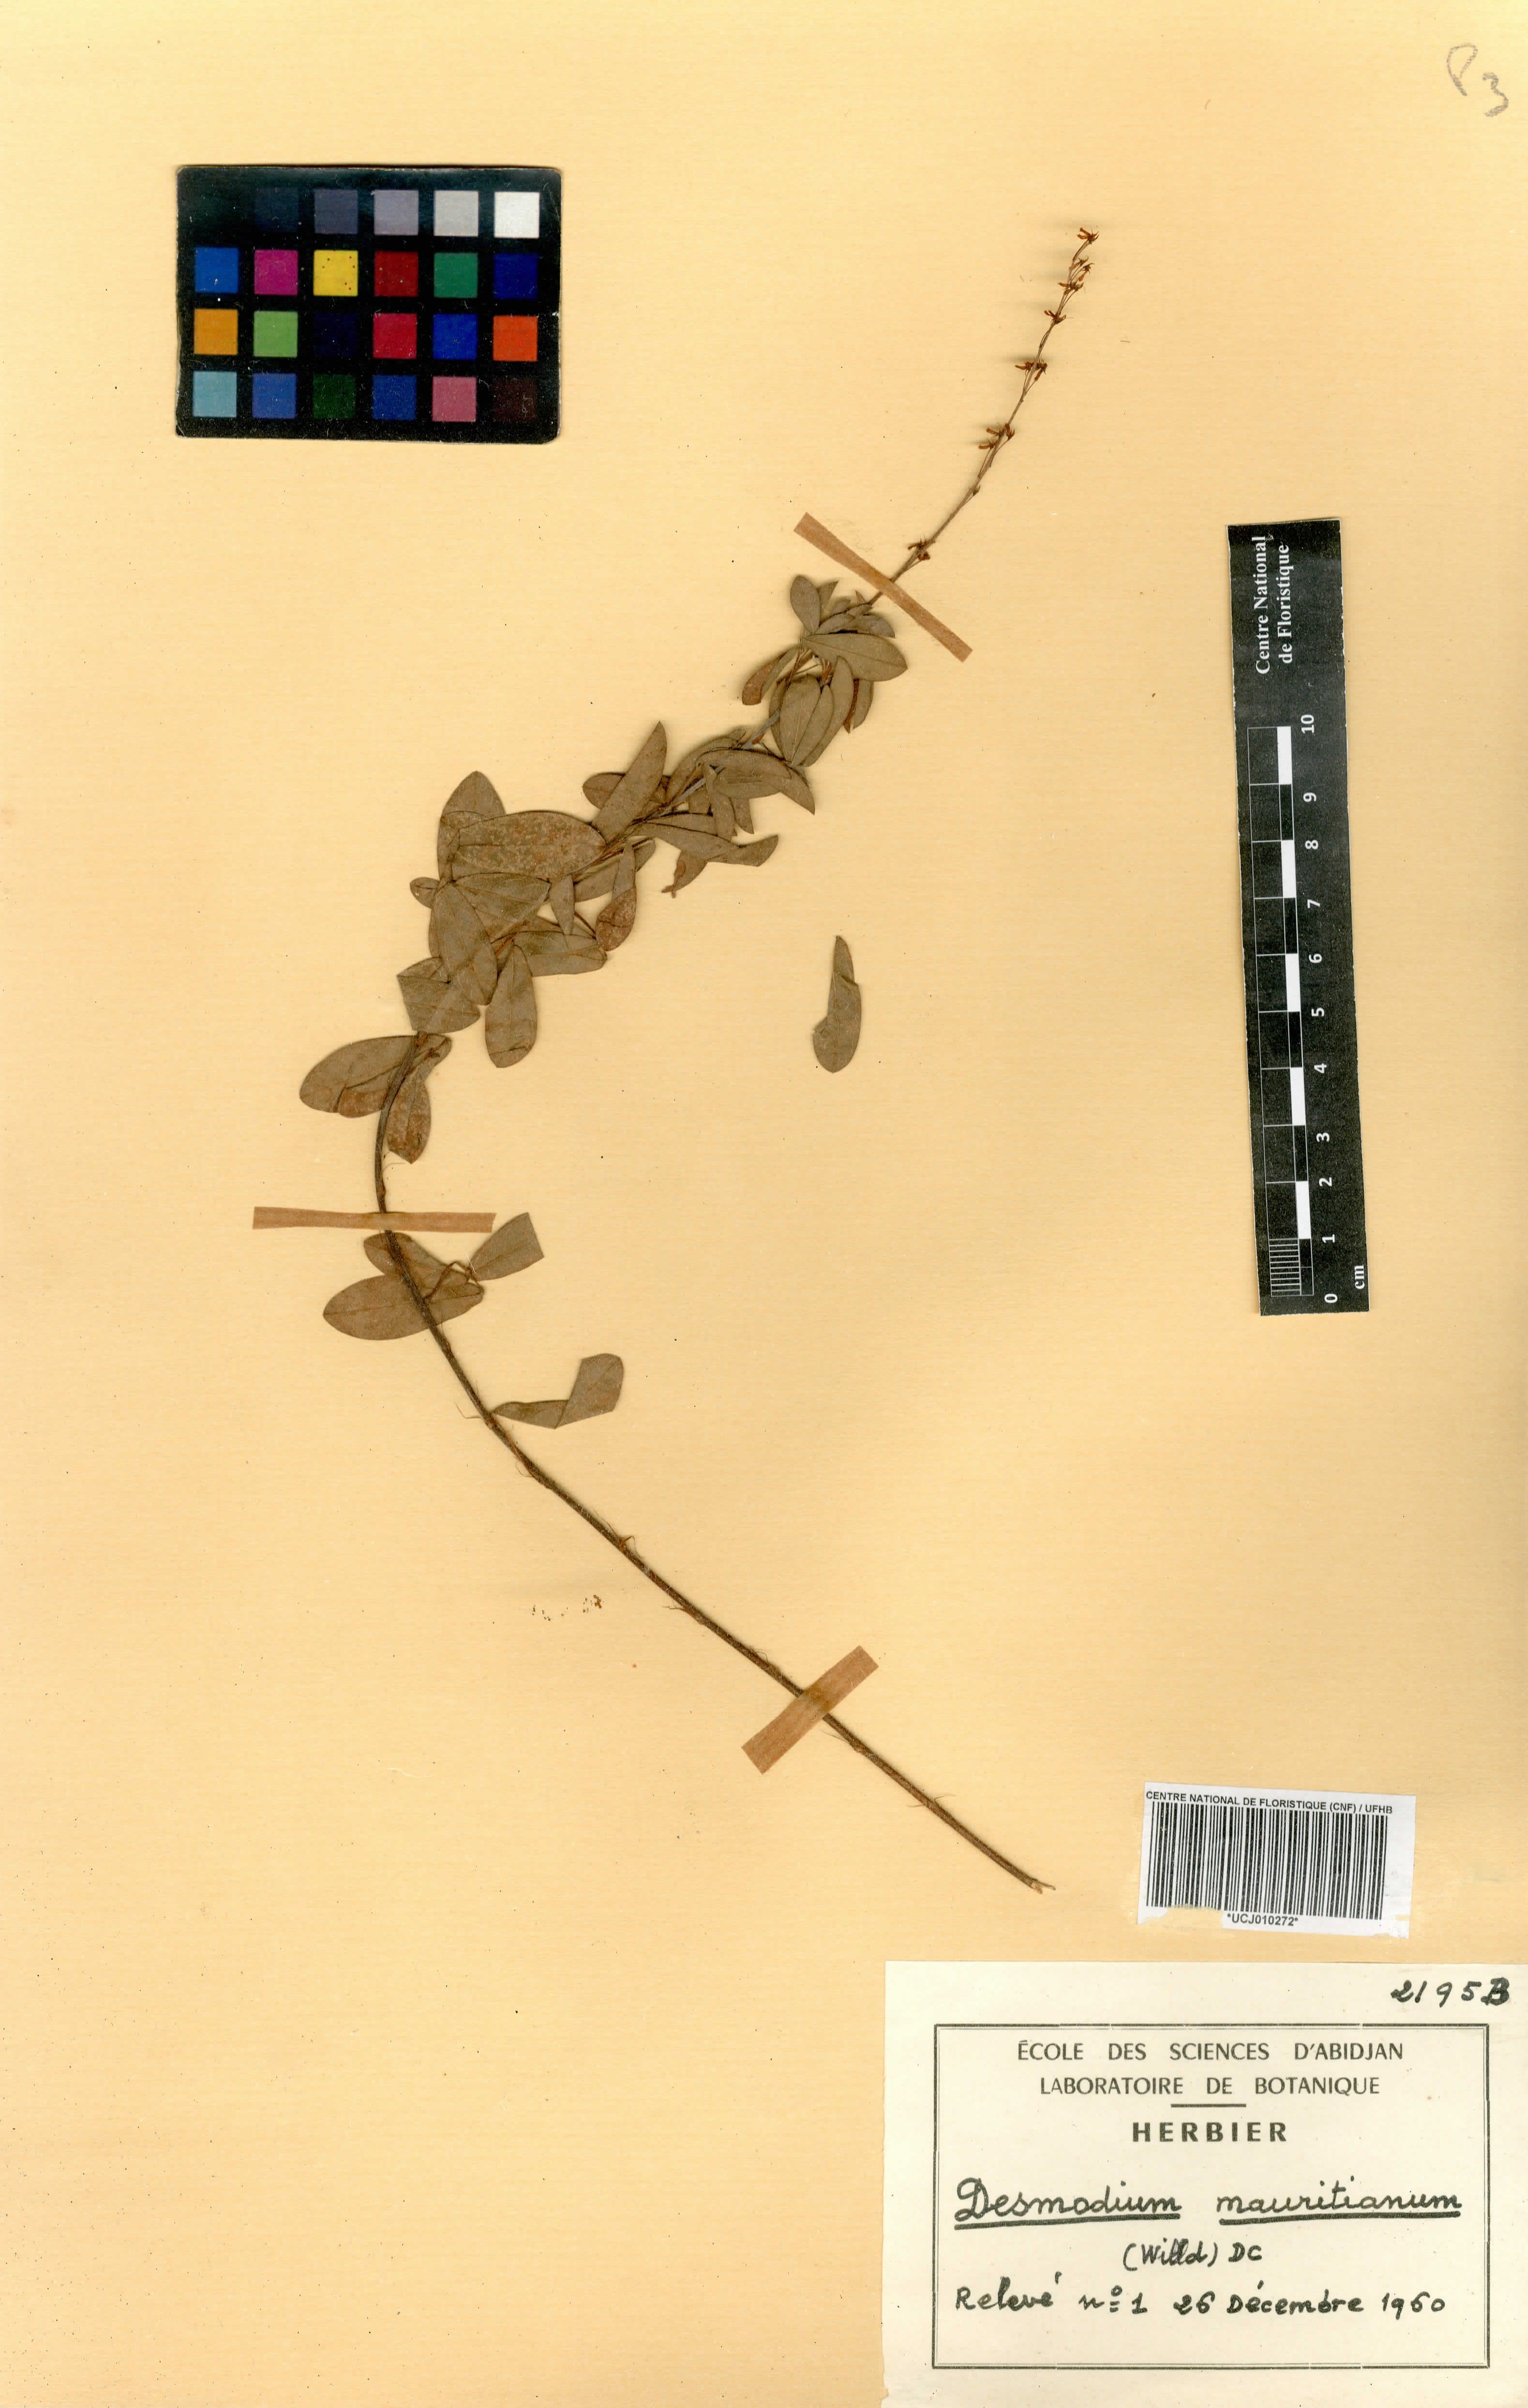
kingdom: Plantae
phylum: Tracheophyta
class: Magnoliopsida
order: Fabales
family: Fabaceae
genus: Desmodium
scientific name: Desmodium incanum
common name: Tickclover
